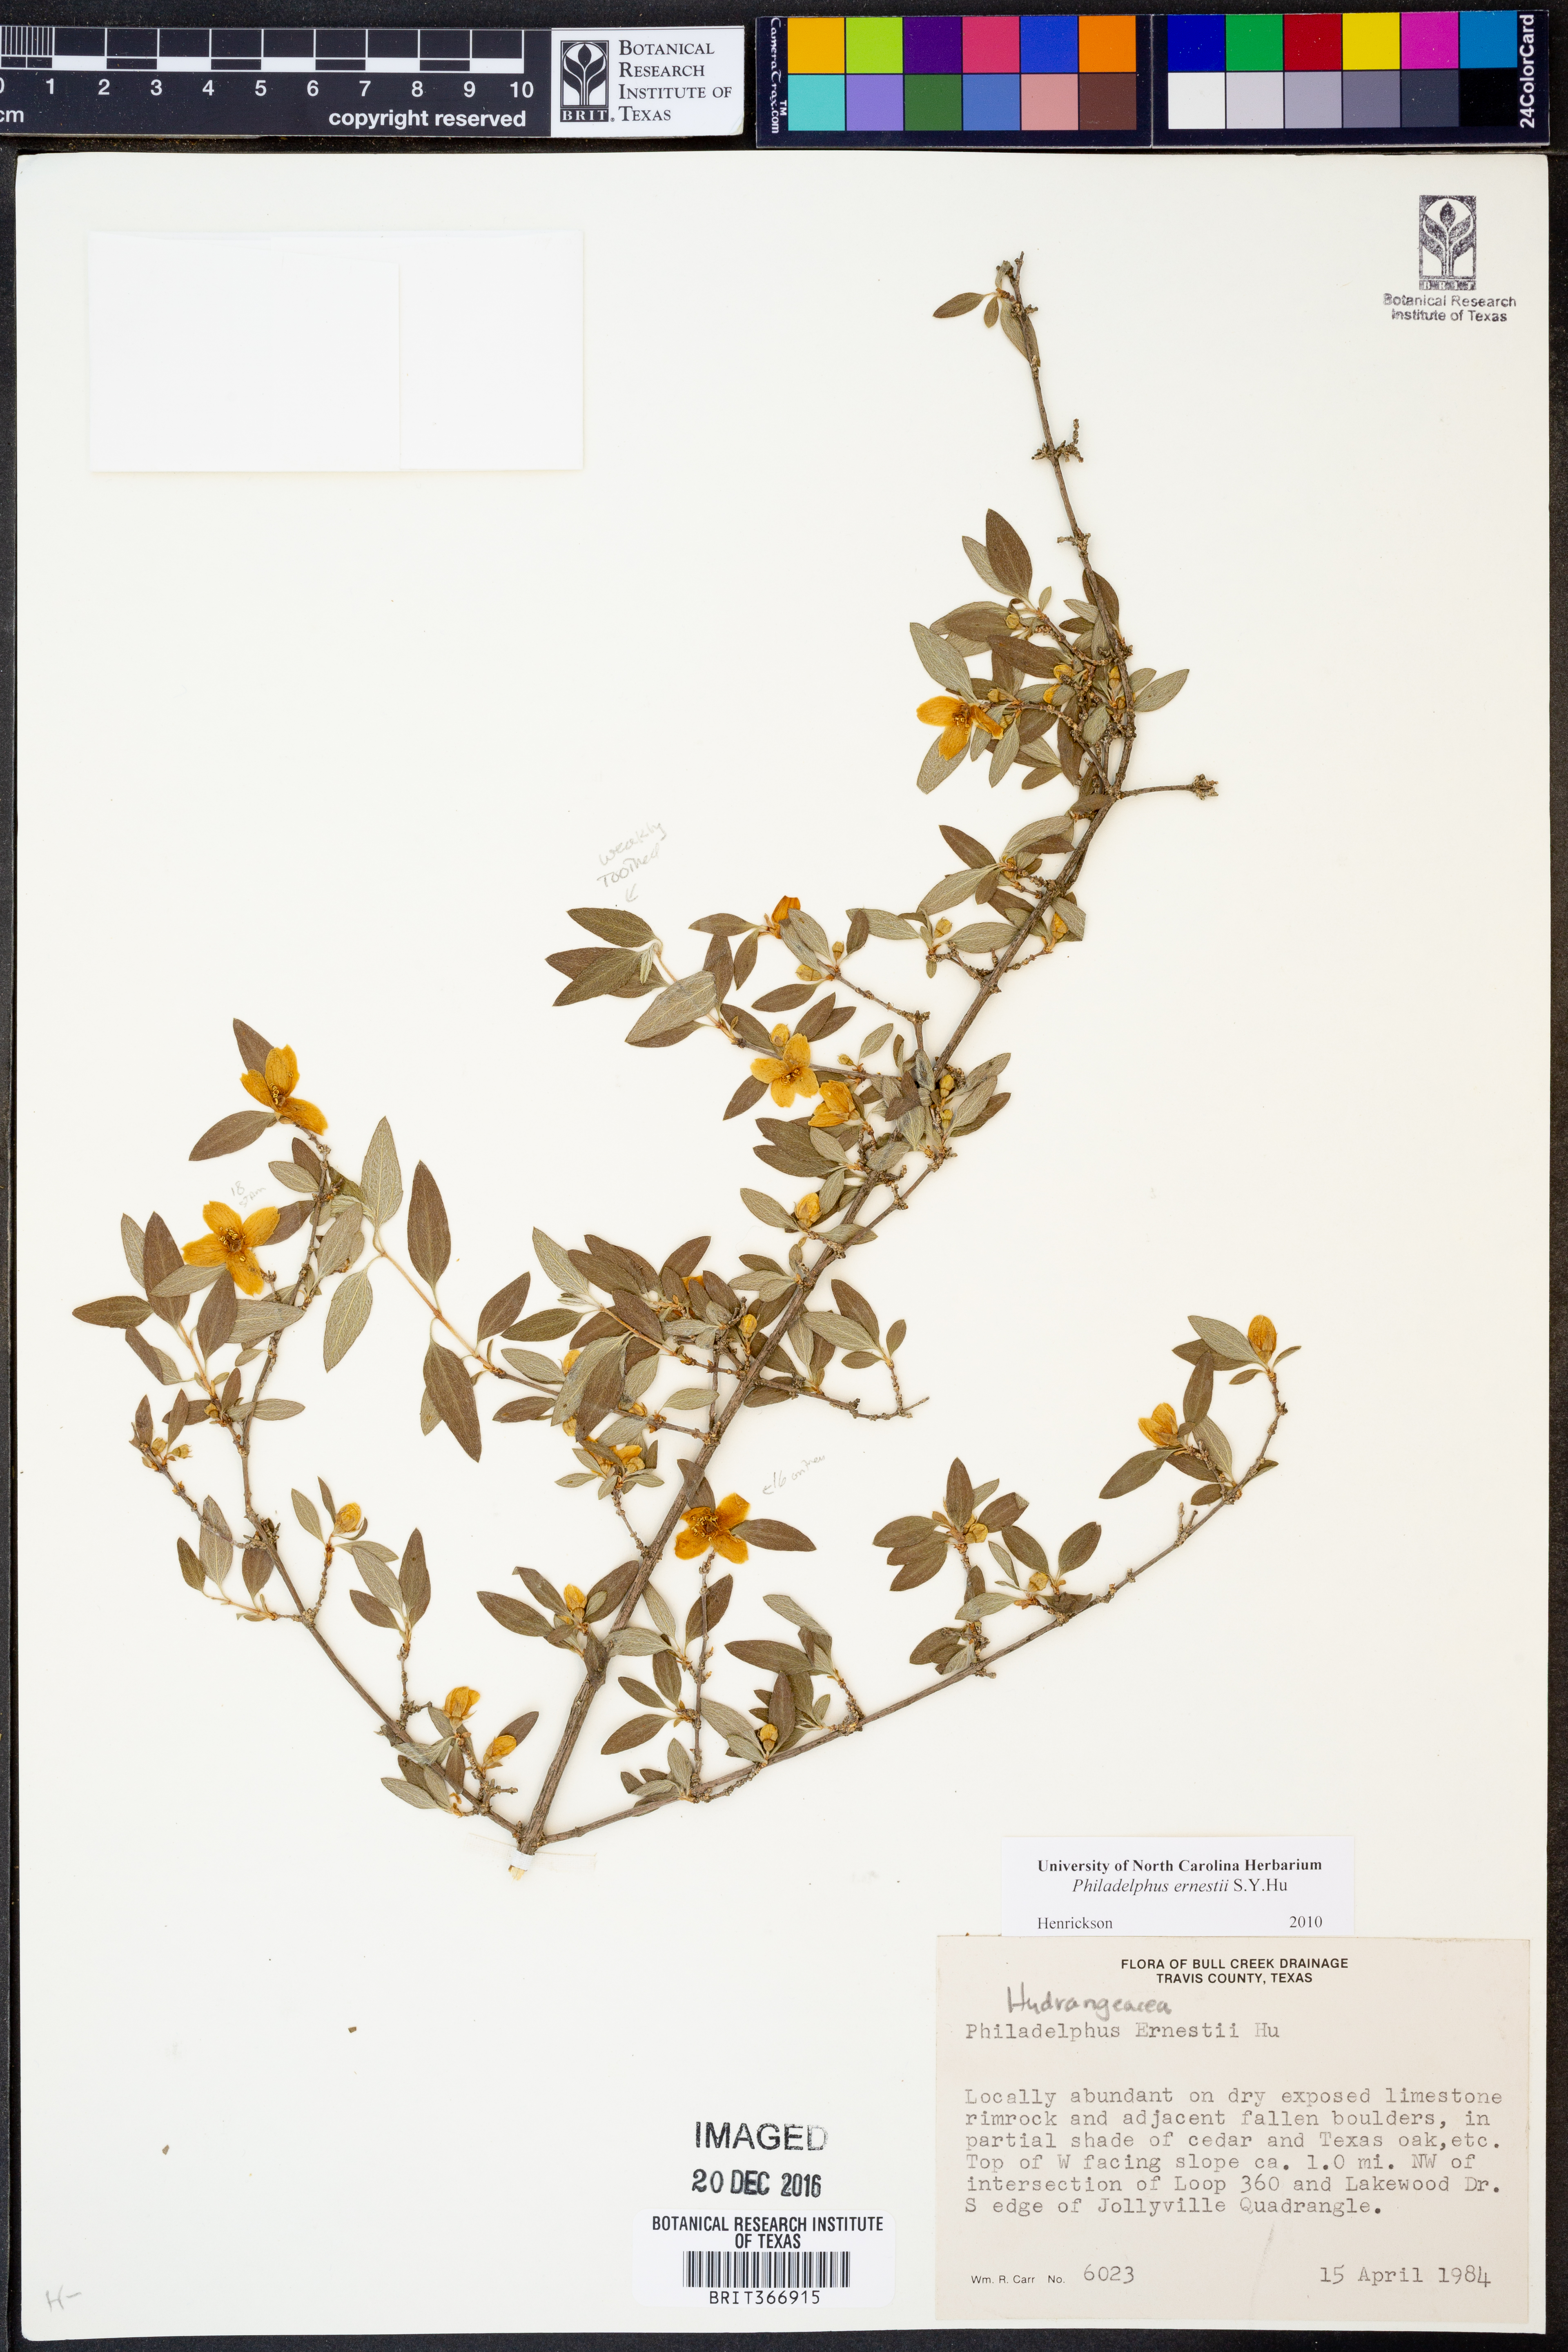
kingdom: Plantae
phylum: Tracheophyta
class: Magnoliopsida
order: Cornales
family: Hydrangeaceae
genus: Philadelphus
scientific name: Philadelphus texensis
